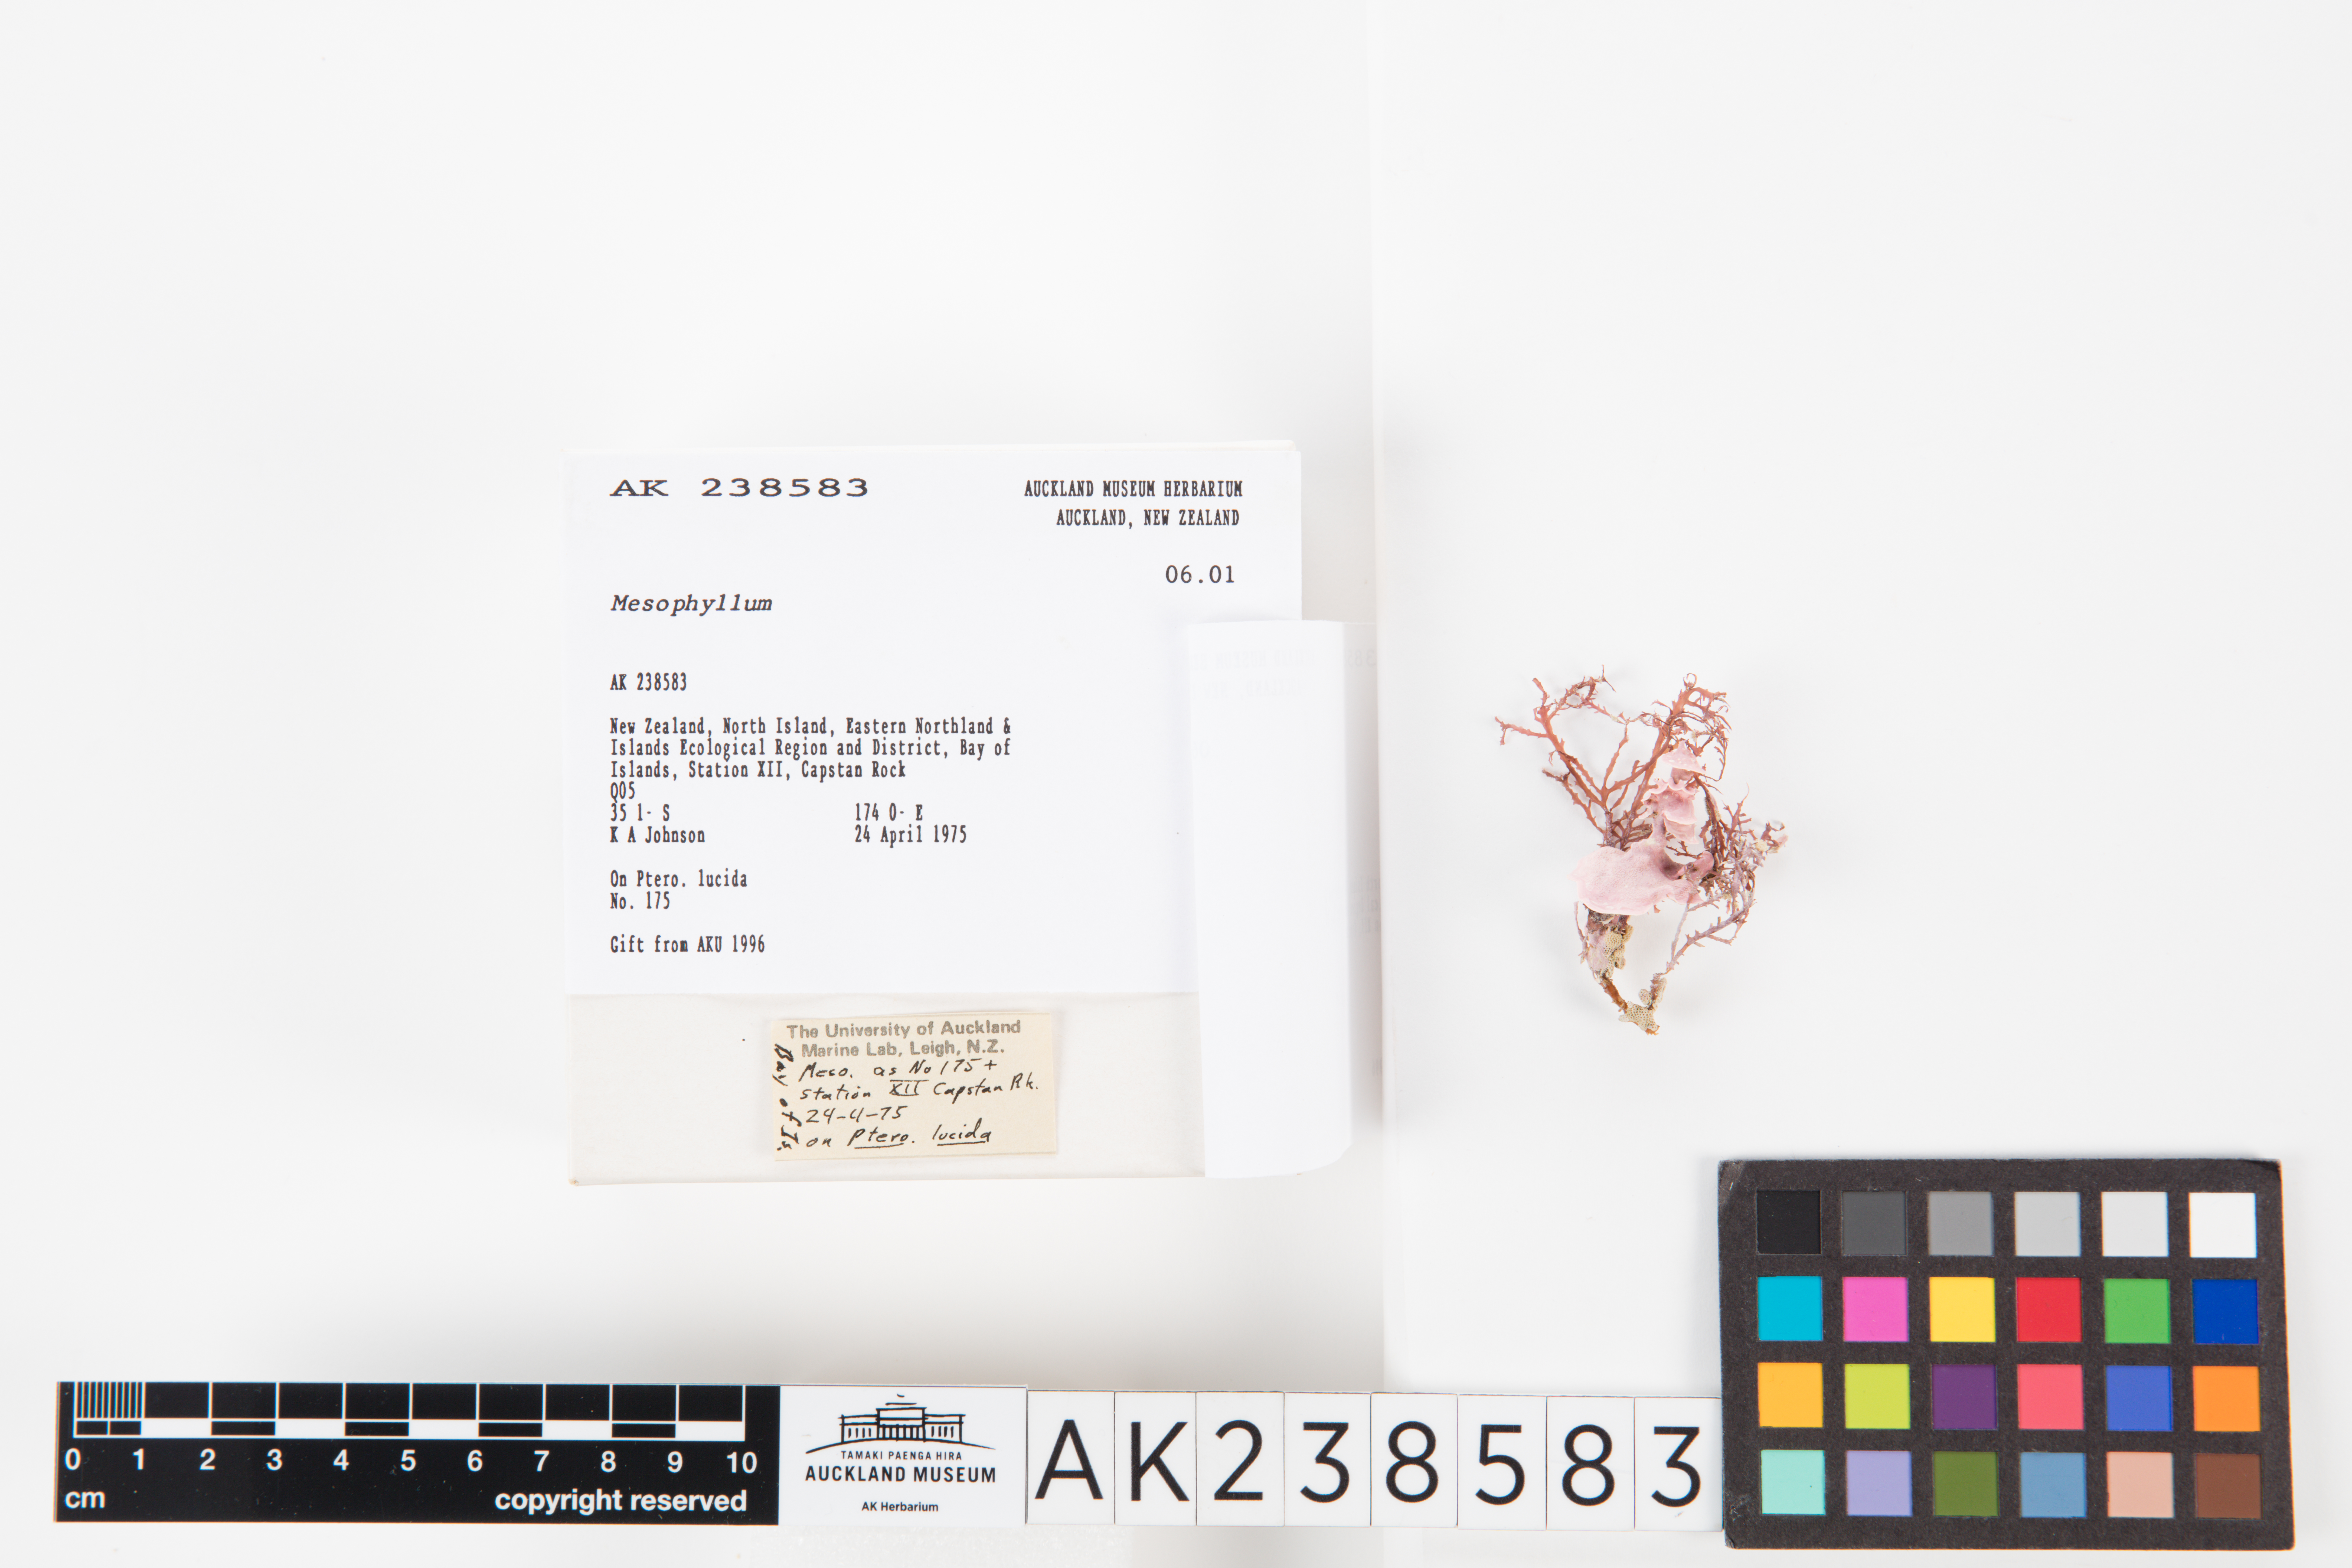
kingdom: Plantae
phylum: Rhodophyta
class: Florideophyceae
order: Corallinales
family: Mesophyllumaceae
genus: Mesophyllum
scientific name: Mesophyllum
